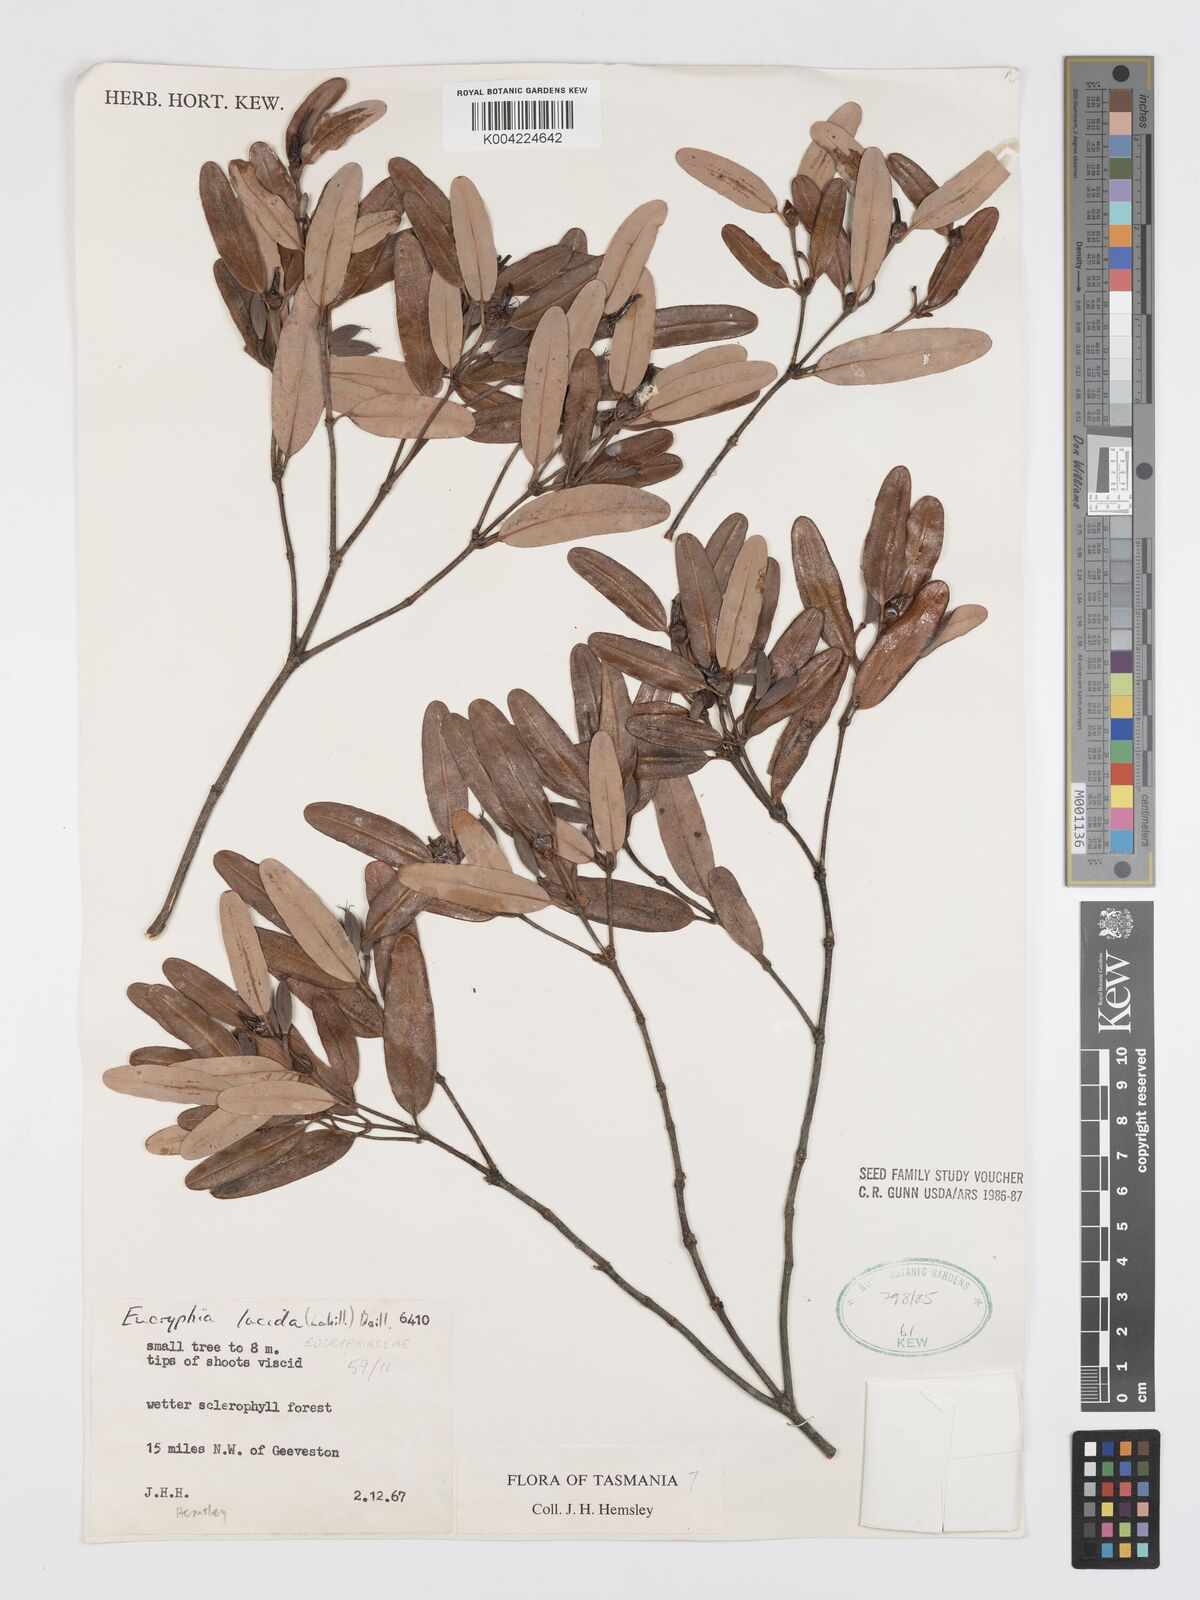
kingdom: Plantae
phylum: Tracheophyta
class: Magnoliopsida
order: Oxalidales
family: Cunoniaceae
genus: Eucryphia
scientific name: Eucryphia lucida
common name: Leatherwood
